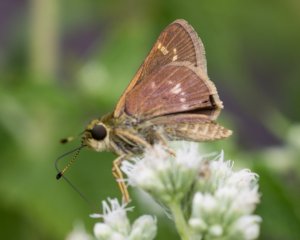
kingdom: Animalia
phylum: Arthropoda
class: Insecta
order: Lepidoptera
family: Hesperiidae
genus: Vernia
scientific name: Vernia verna
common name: Little Glassywing
